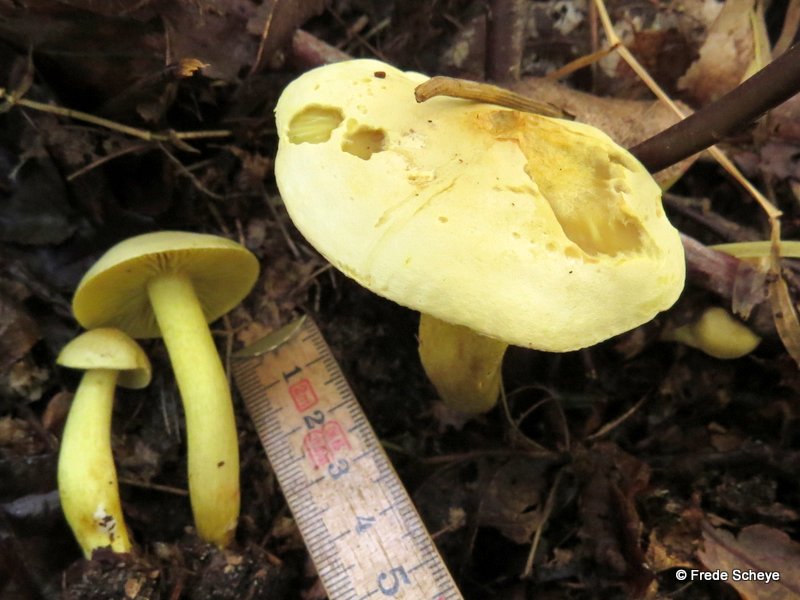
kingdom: Fungi
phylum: Basidiomycota
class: Agaricomycetes
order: Agaricales
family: Tricholomataceae
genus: Tricholoma
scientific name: Tricholoma sulphureum
